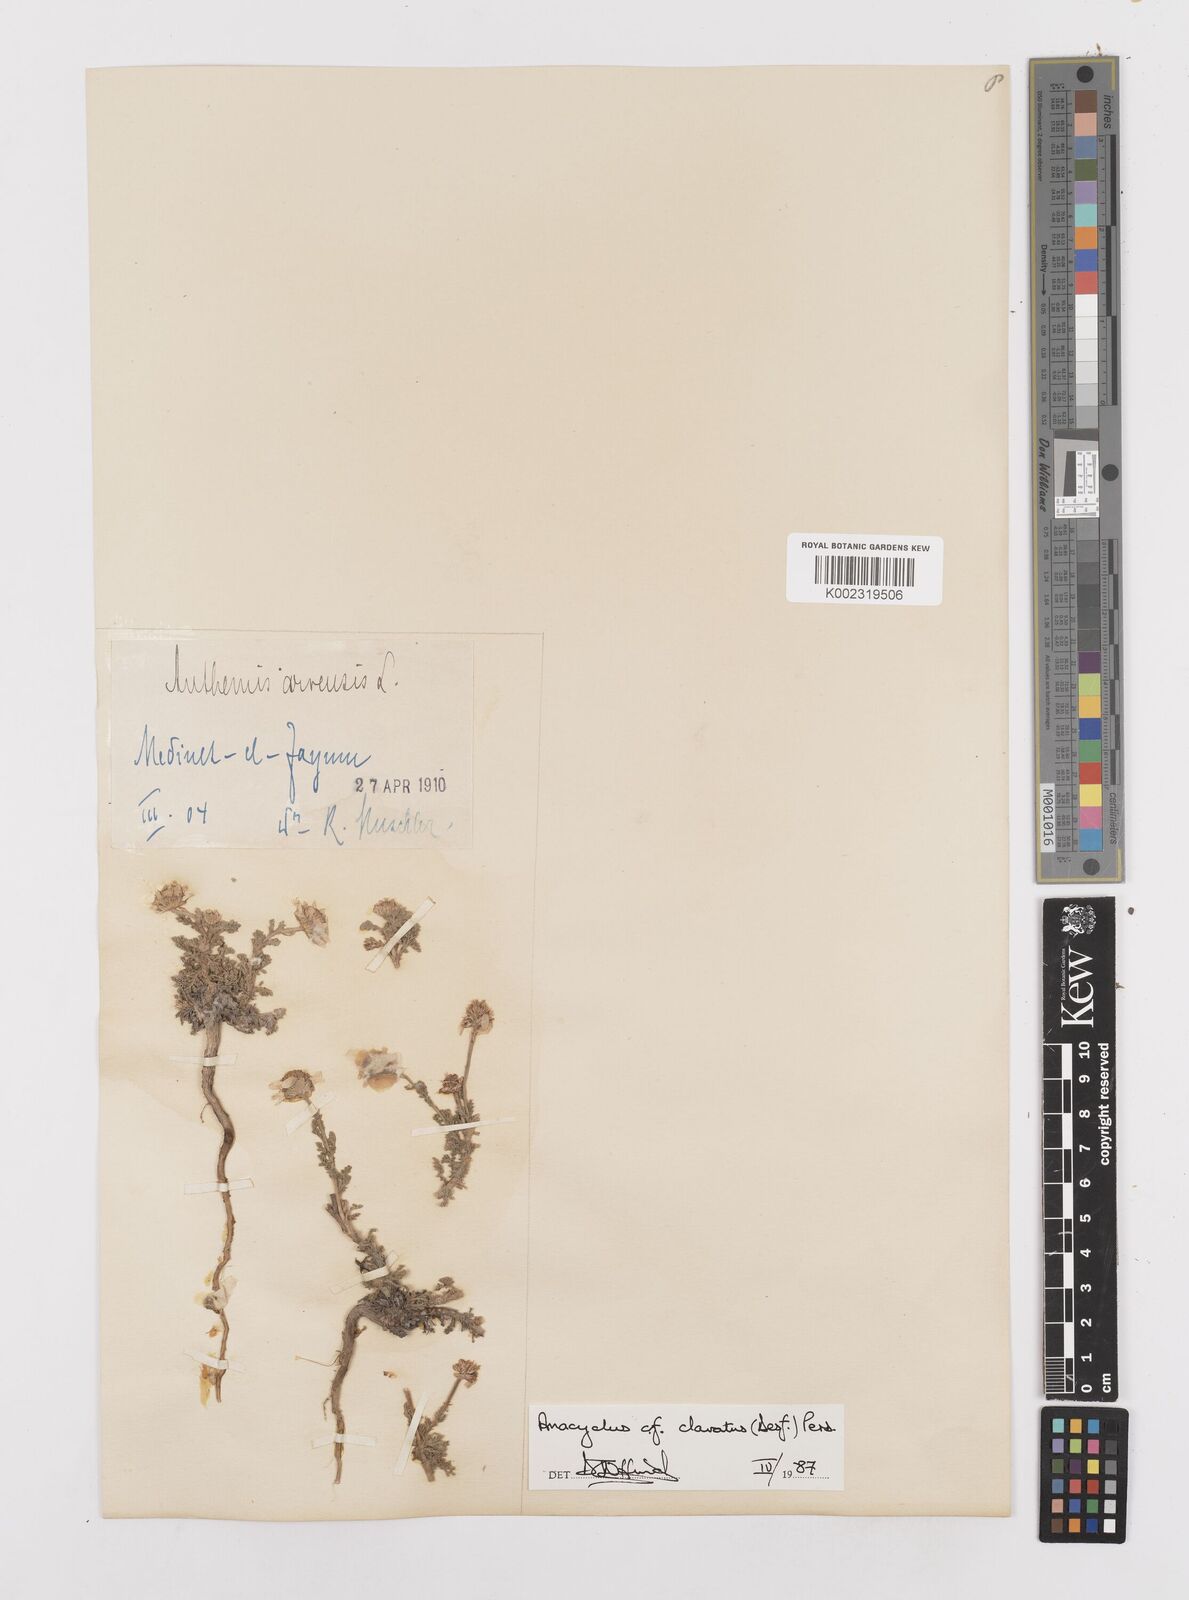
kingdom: Plantae
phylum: Tracheophyta
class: Magnoliopsida
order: Asterales
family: Asteraceae
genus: Anacyclus
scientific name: Anacyclus clavatus
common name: Whitebuttons
